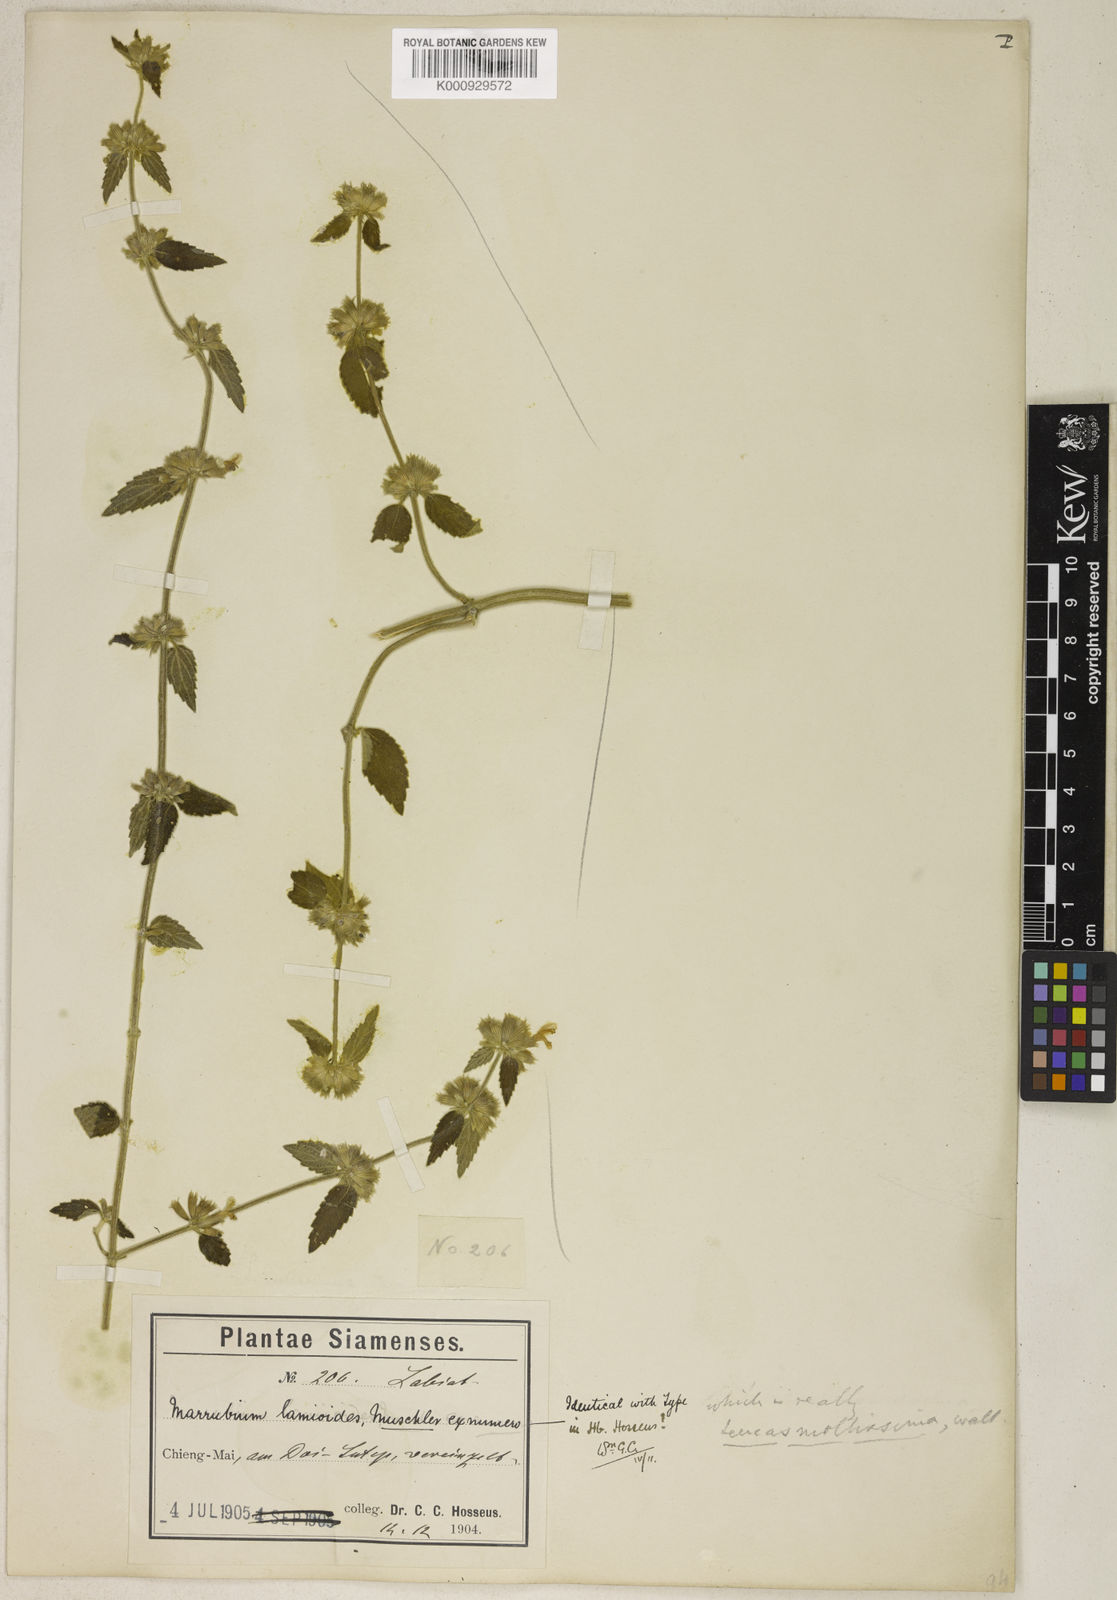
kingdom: Plantae
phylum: Tracheophyta
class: Magnoliopsida
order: Lamiales
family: Lamiaceae
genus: Leucas
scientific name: Leucas
